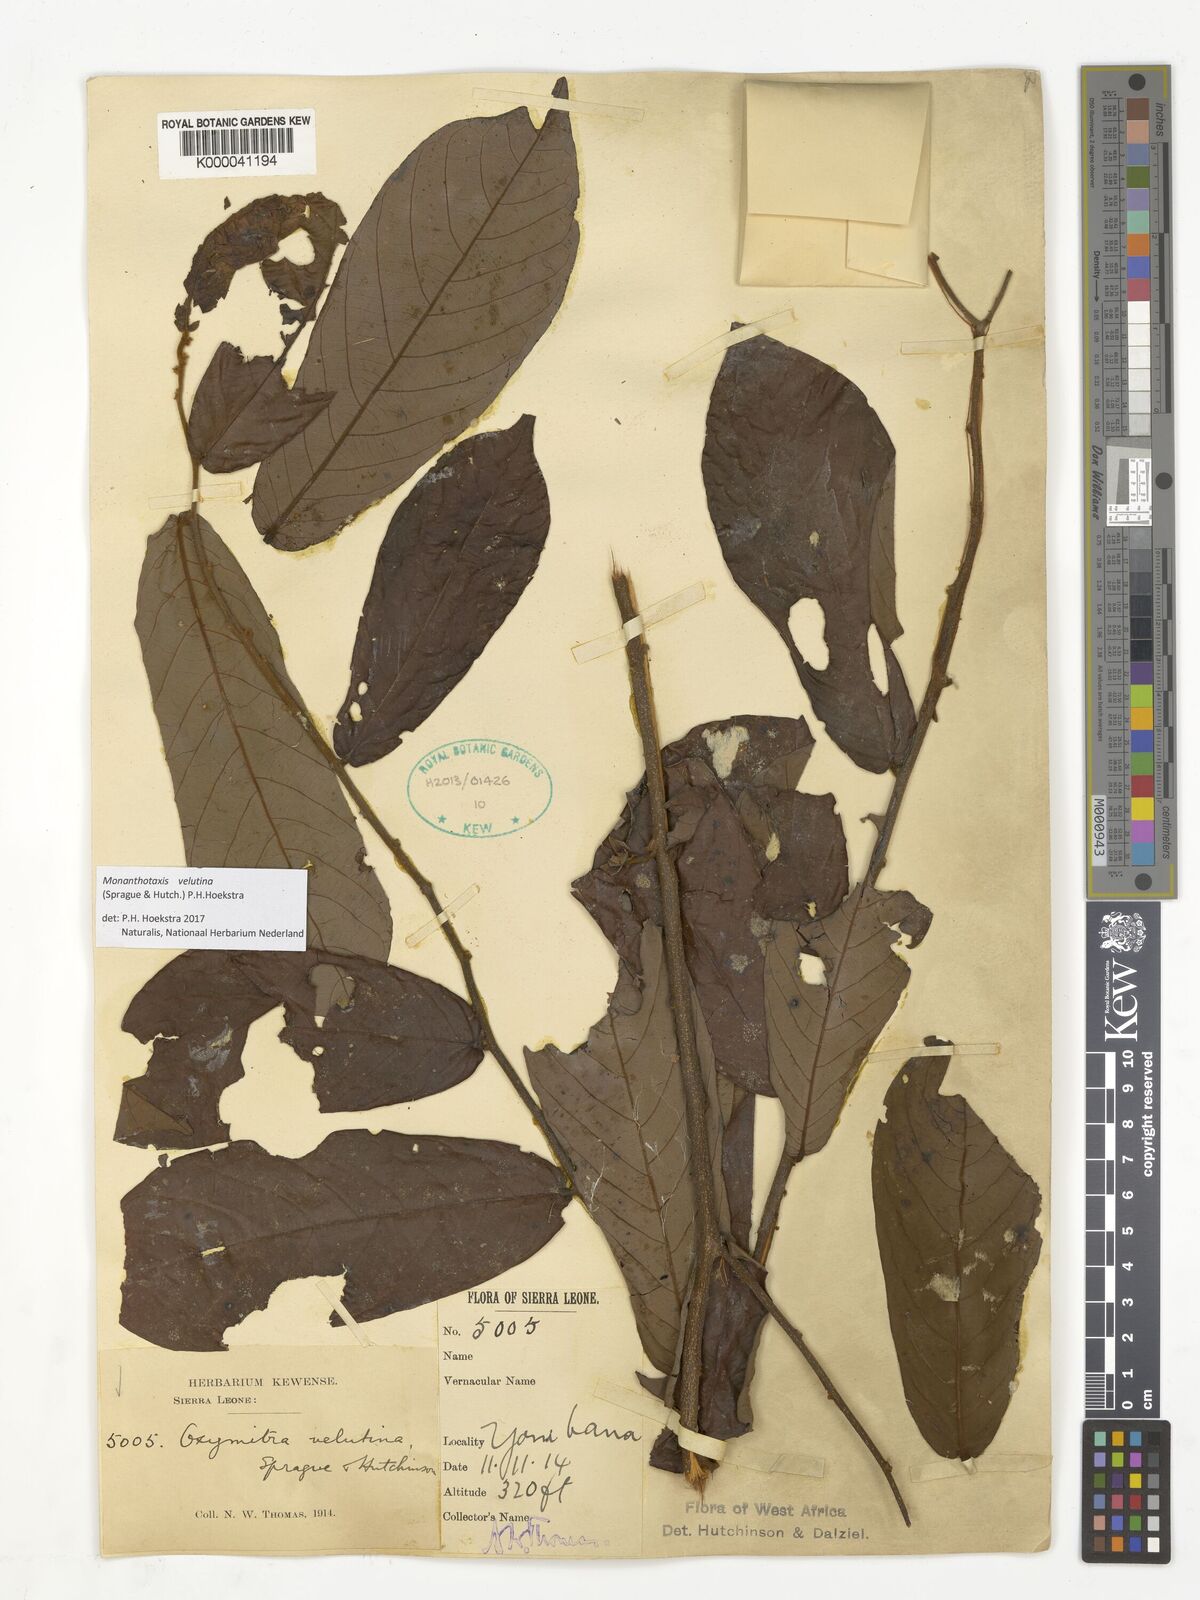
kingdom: Plantae
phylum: Tracheophyta
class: Magnoliopsida
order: Magnoliales
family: Annonaceae
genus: Friesodielsia
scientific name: Friesodielsia velutina
